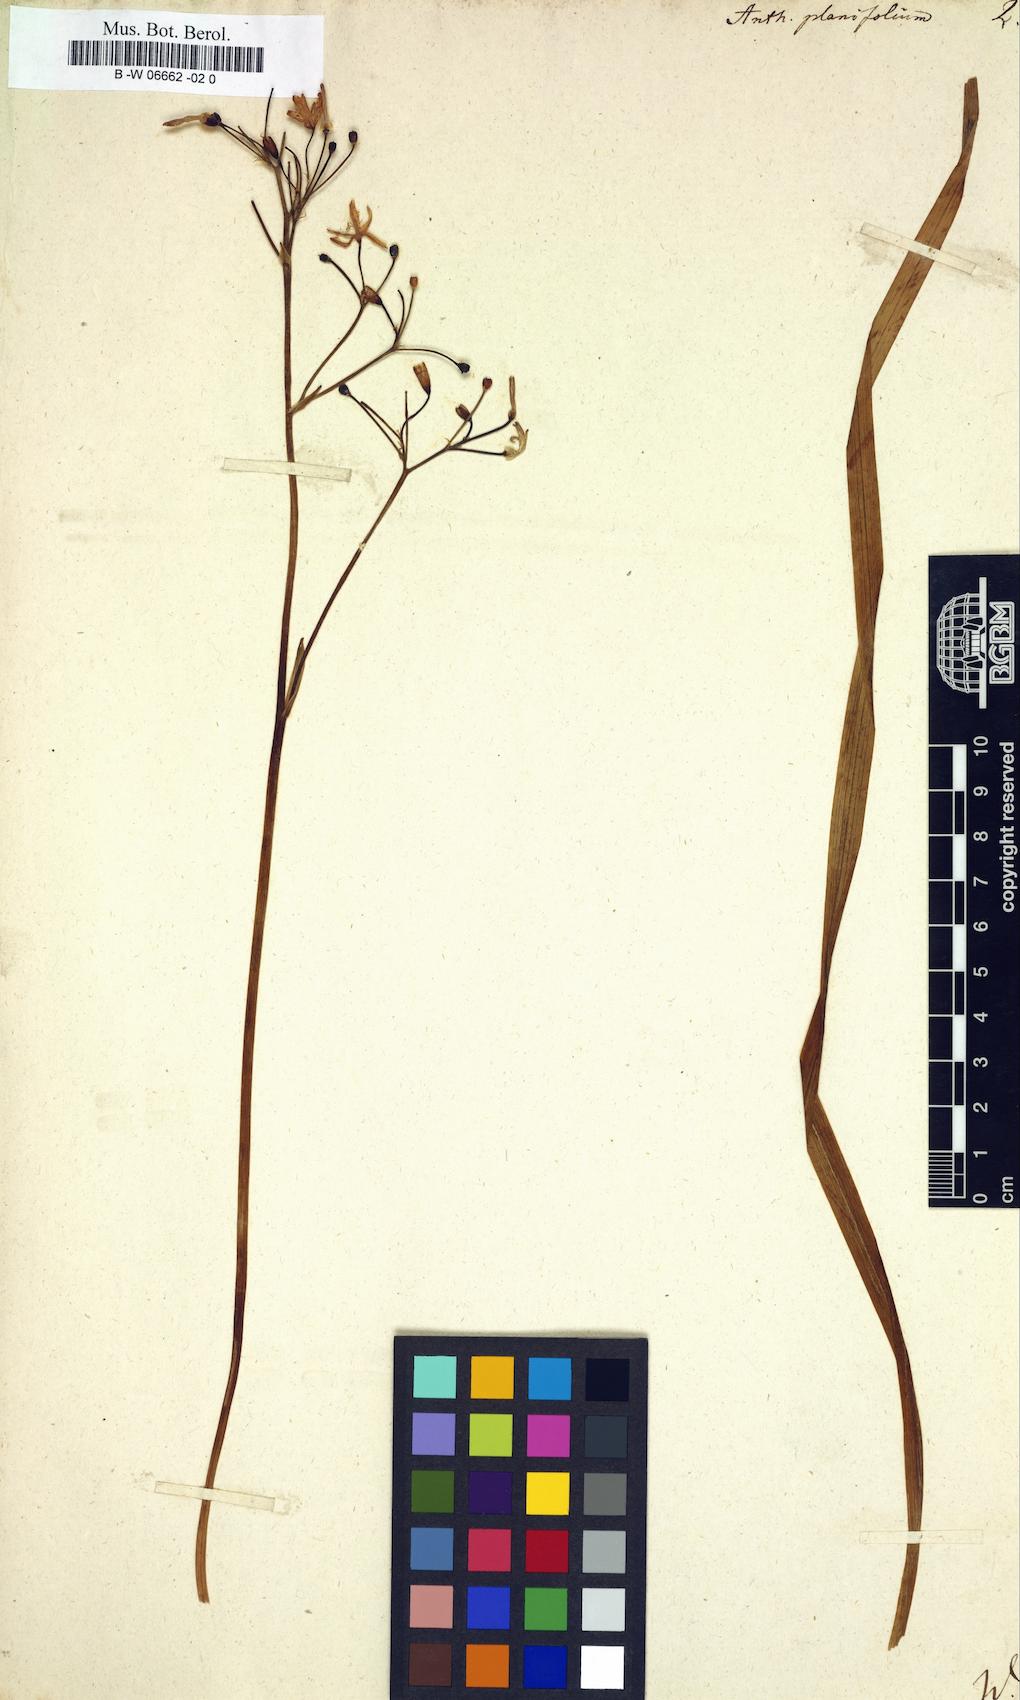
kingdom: Plantae
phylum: Tracheophyta
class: Liliopsida
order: Asparagales
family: Asphodelaceae
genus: Simethis
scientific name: Simethis mattiazzii
